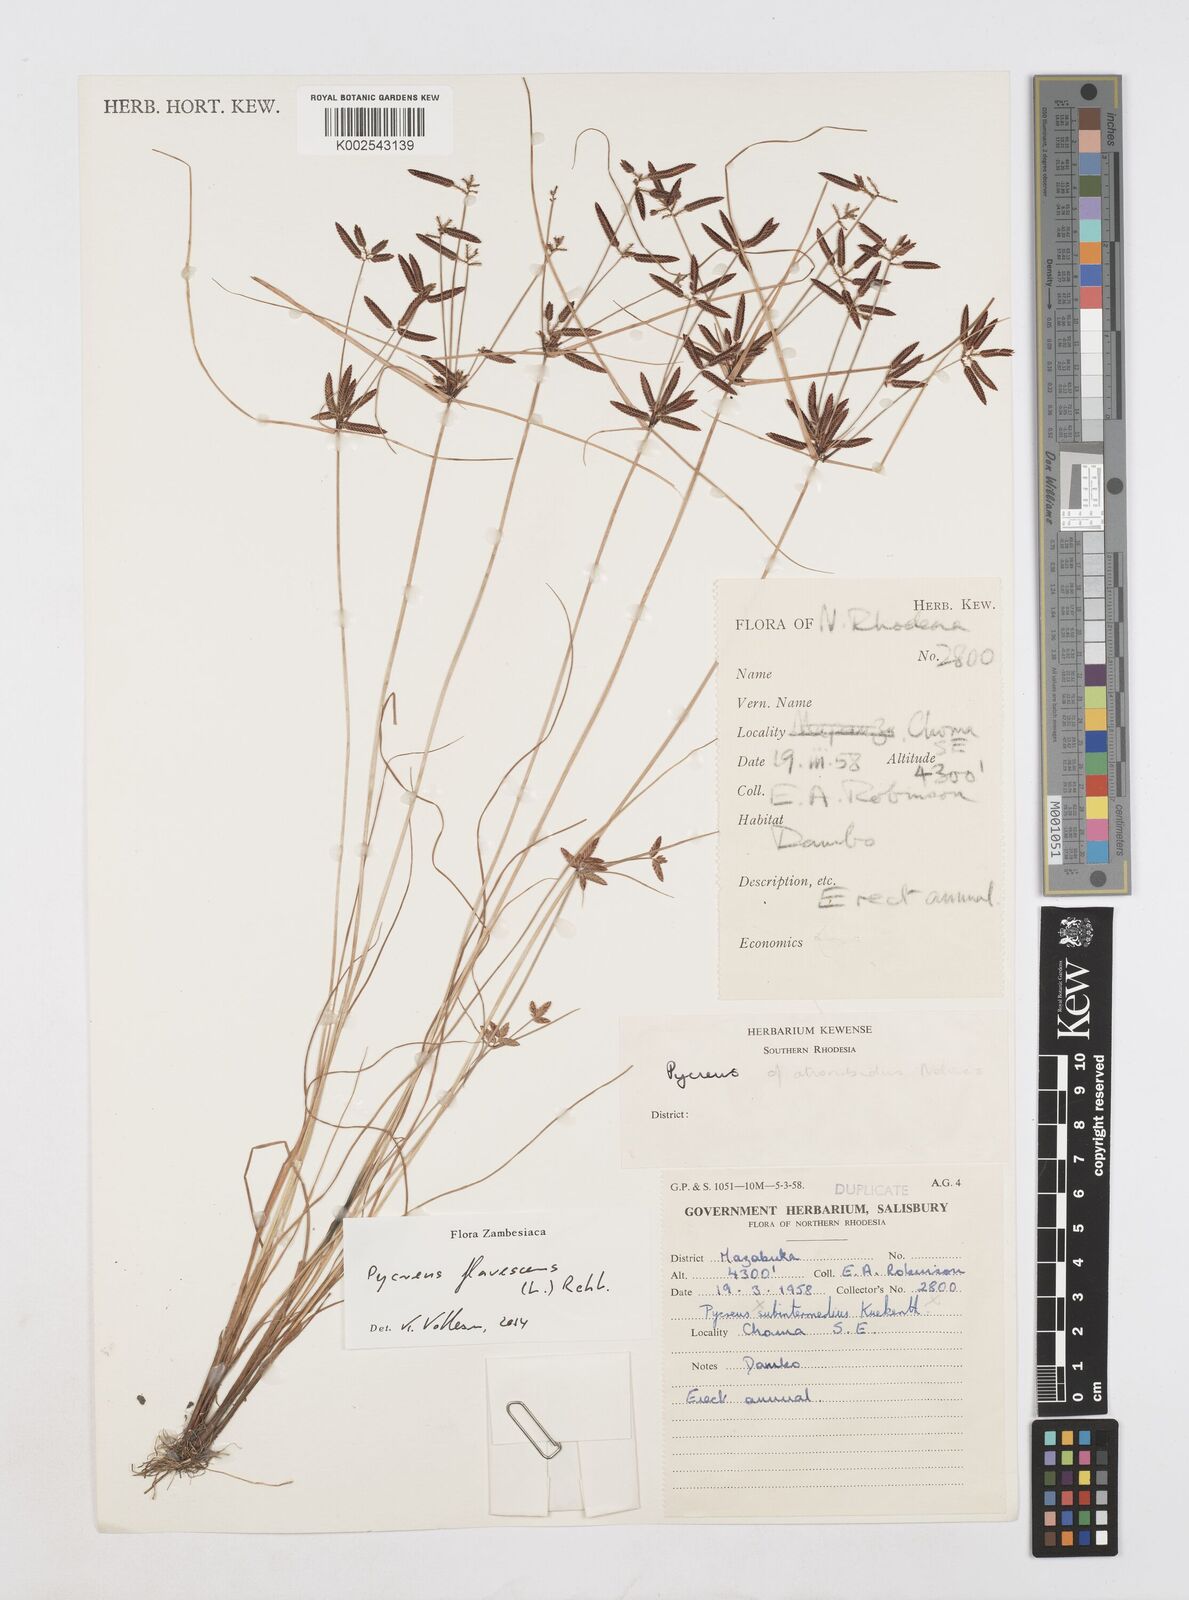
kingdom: Plantae
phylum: Tracheophyta
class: Liliopsida
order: Poales
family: Cyperaceae
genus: Cyperus
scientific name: Cyperus flavescens
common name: Yellow galingale
